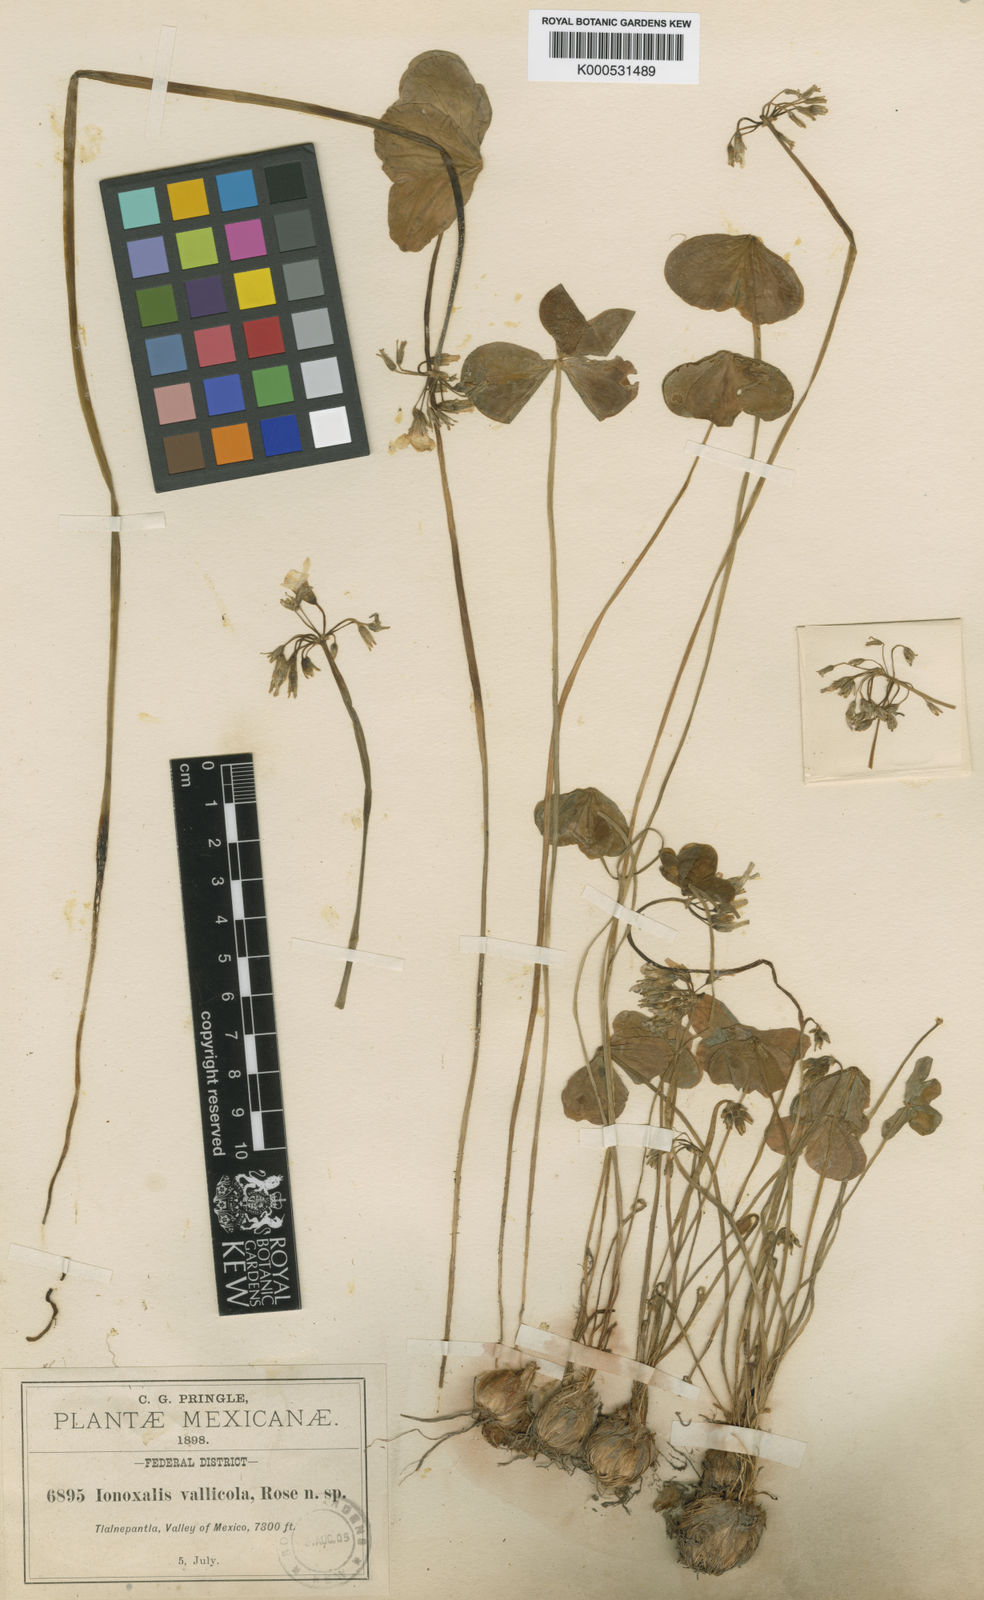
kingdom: Plantae
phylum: Tracheophyta
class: Magnoliopsida
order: Oxalidales
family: Oxalidaceae
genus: Oxalis
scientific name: Oxalis latifolia
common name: Garden pink-sorrel
